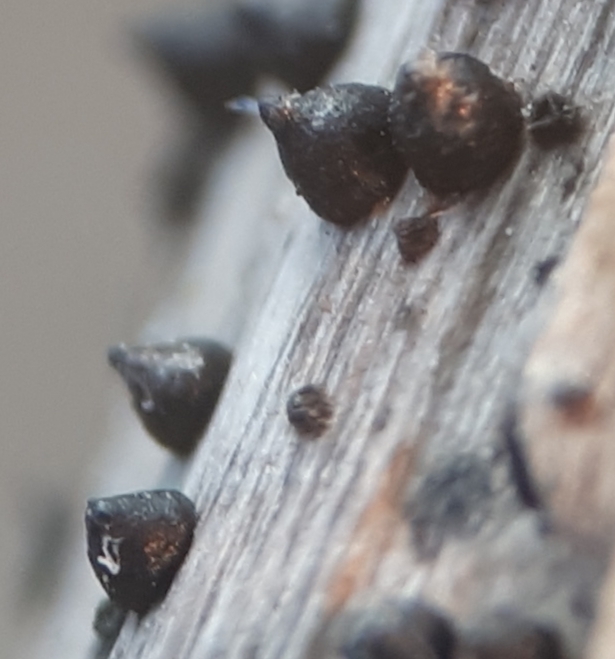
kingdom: Fungi
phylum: Ascomycota
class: Dothideomycetes
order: Pleosporales
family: Leptosphaeriaceae
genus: Leptosphaeria
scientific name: Leptosphaeria
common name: kulkegle
